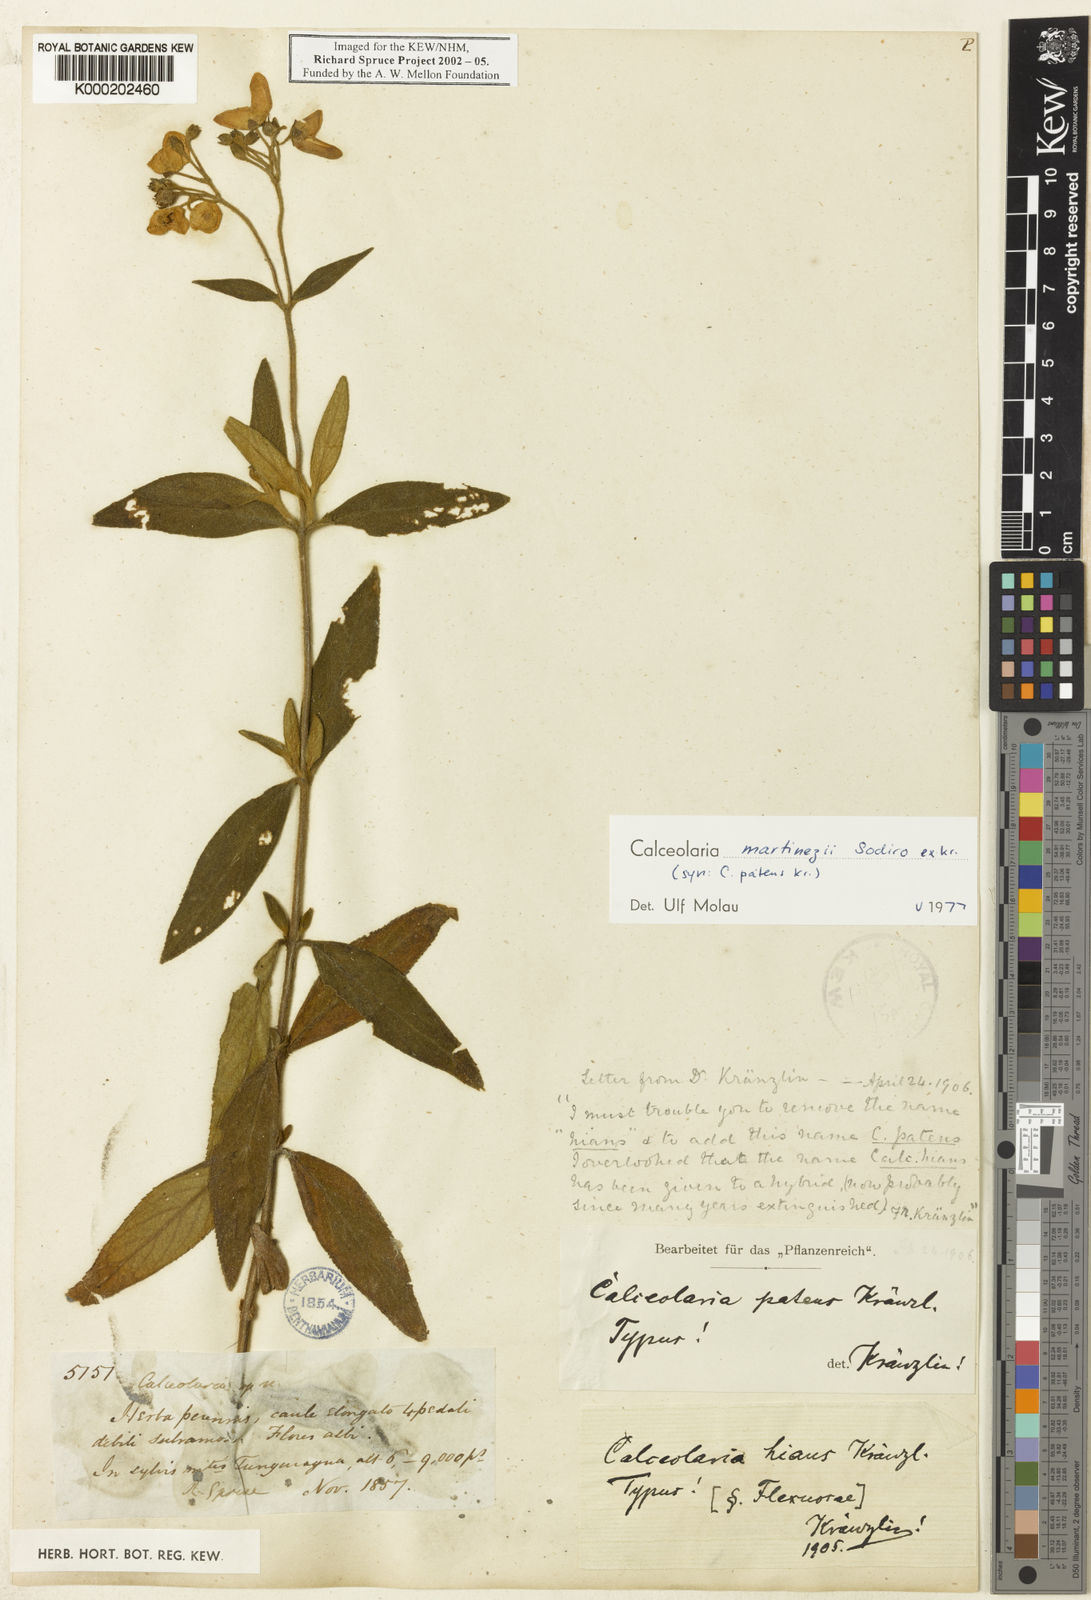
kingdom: Plantae
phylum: Tracheophyta
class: Magnoliopsida
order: Lamiales
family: Calceolariaceae
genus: Calceolaria
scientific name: Calceolaria martinezii
